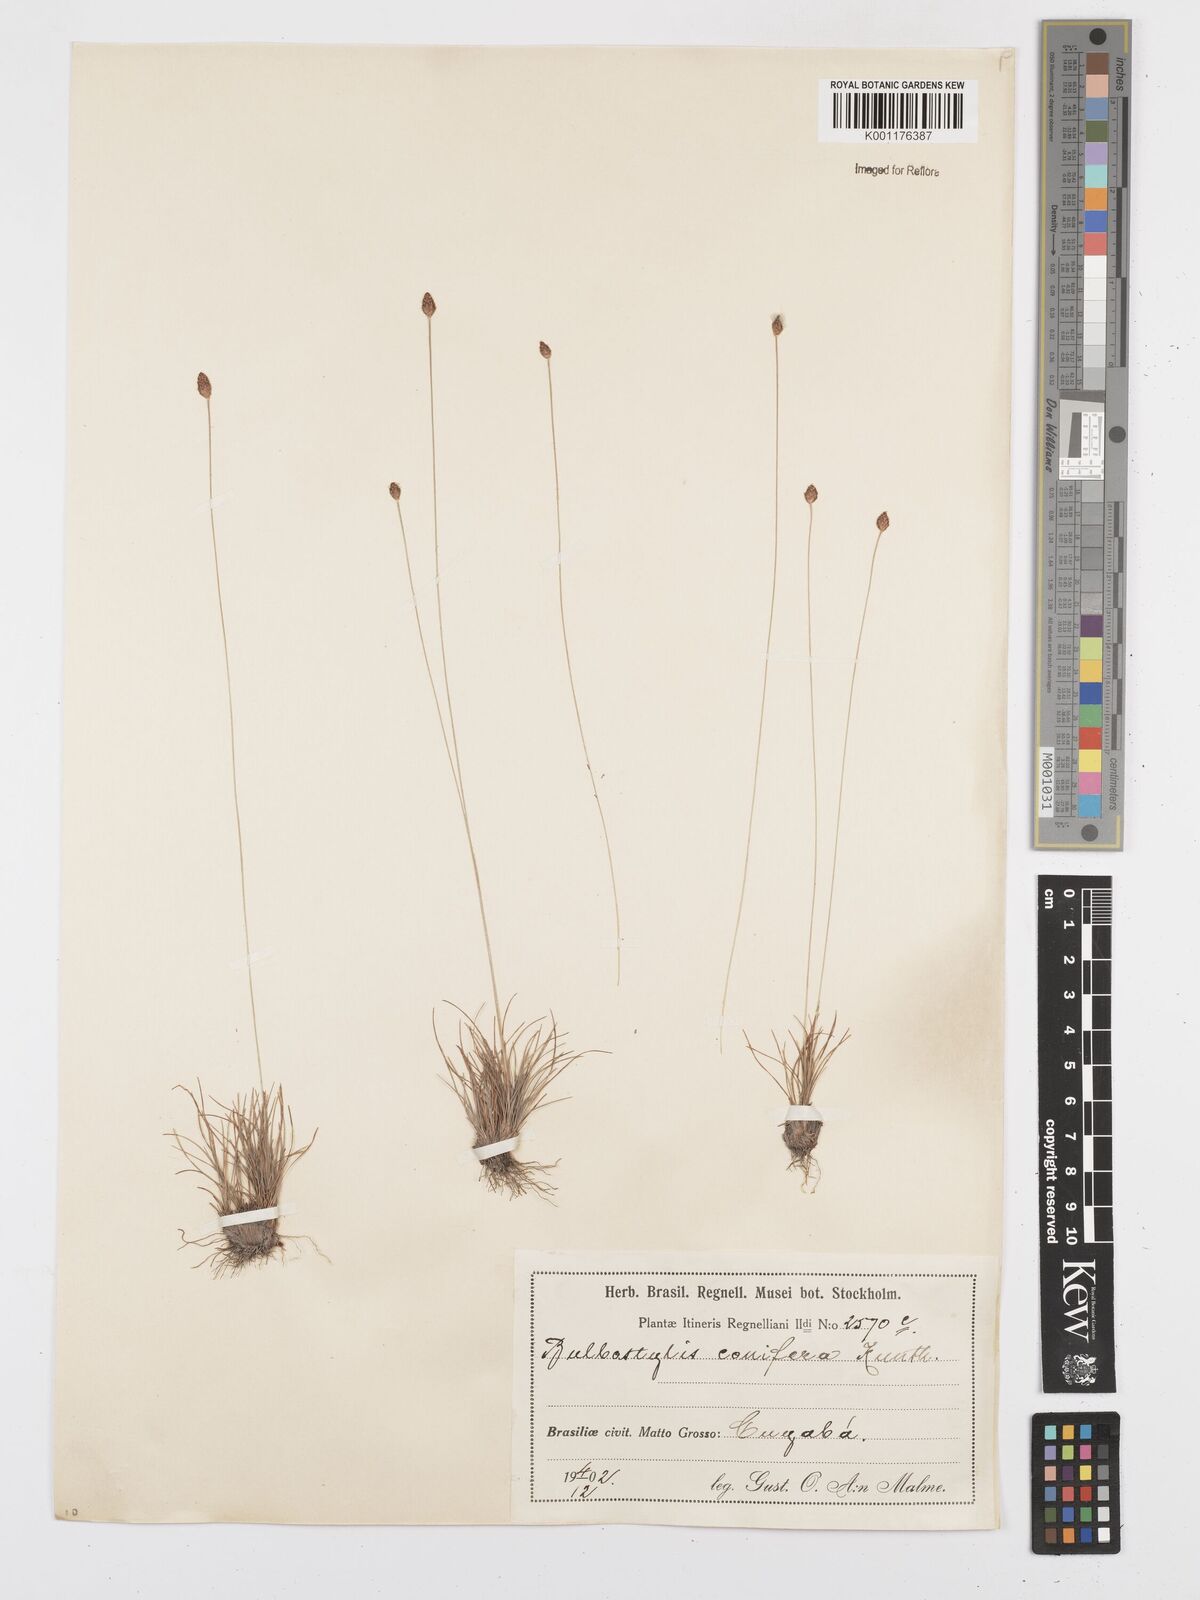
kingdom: Plantae
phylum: Tracheophyta
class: Liliopsida
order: Poales
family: Cyperaceae
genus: Bulbostylis
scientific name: Bulbostylis conifera
